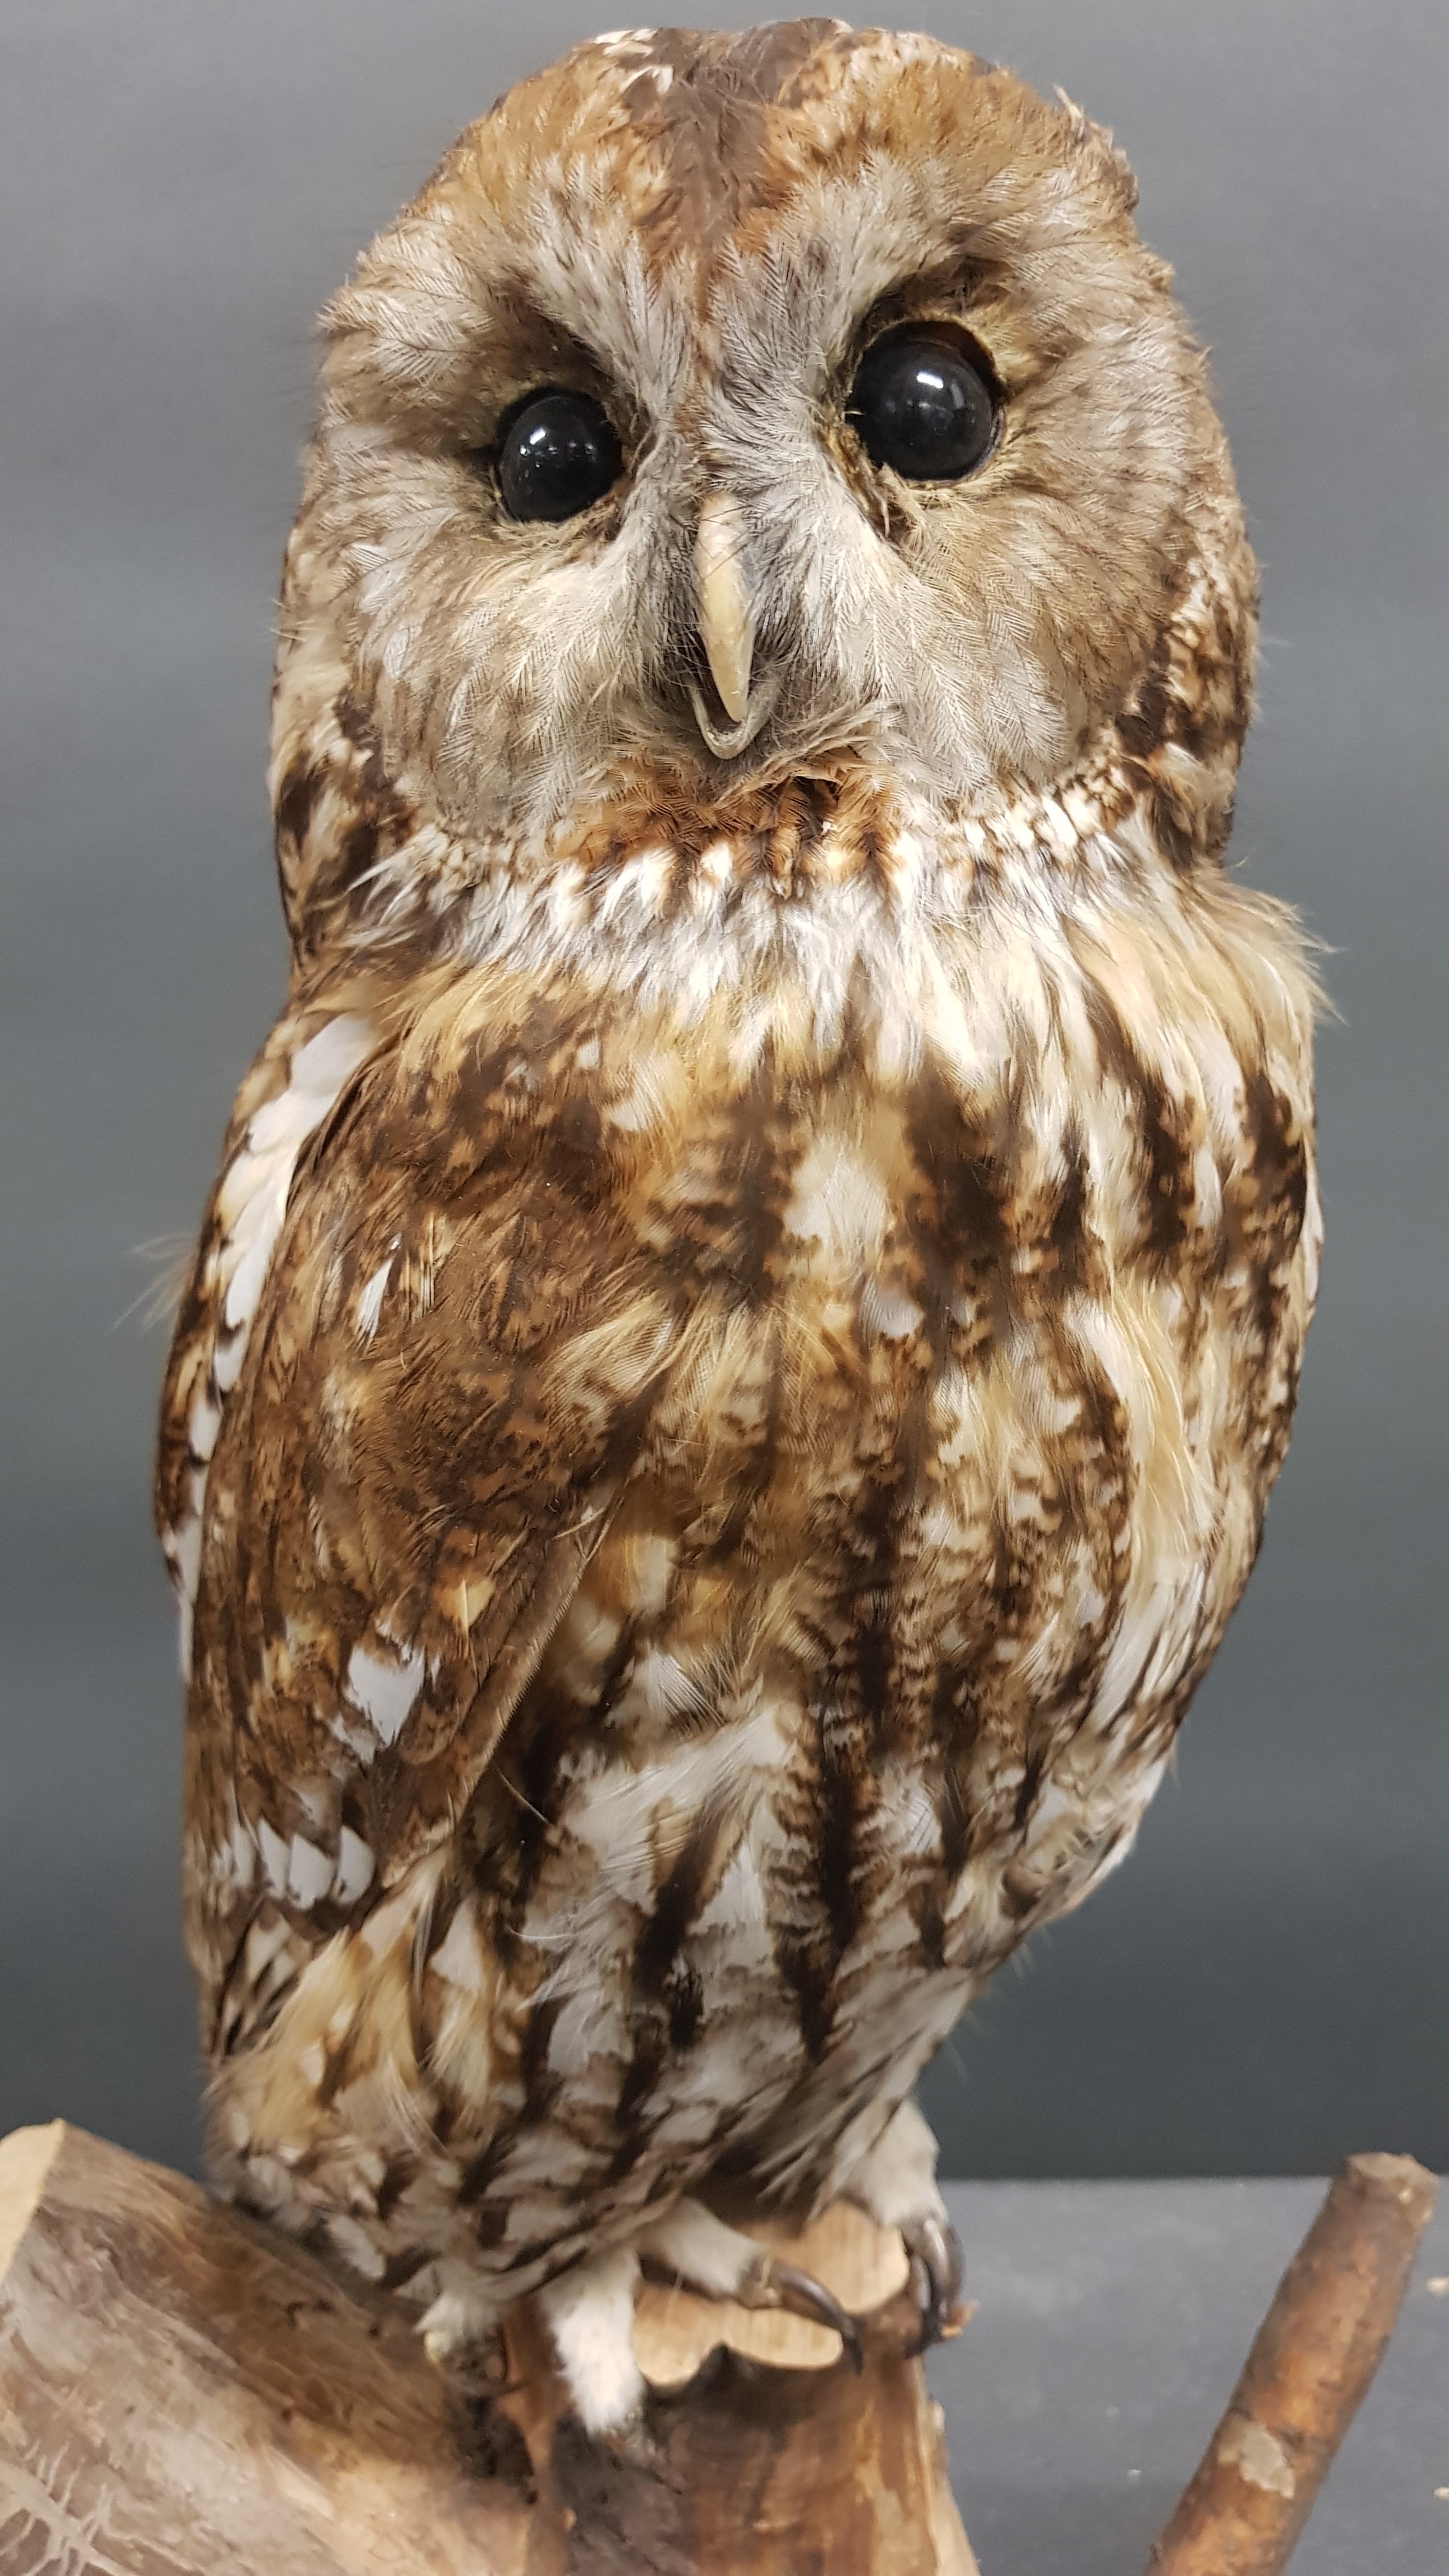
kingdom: Animalia
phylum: Chordata
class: Aves
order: Strigiformes
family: Strigidae
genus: Strix
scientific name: Strix aluco
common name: Tawny owl
